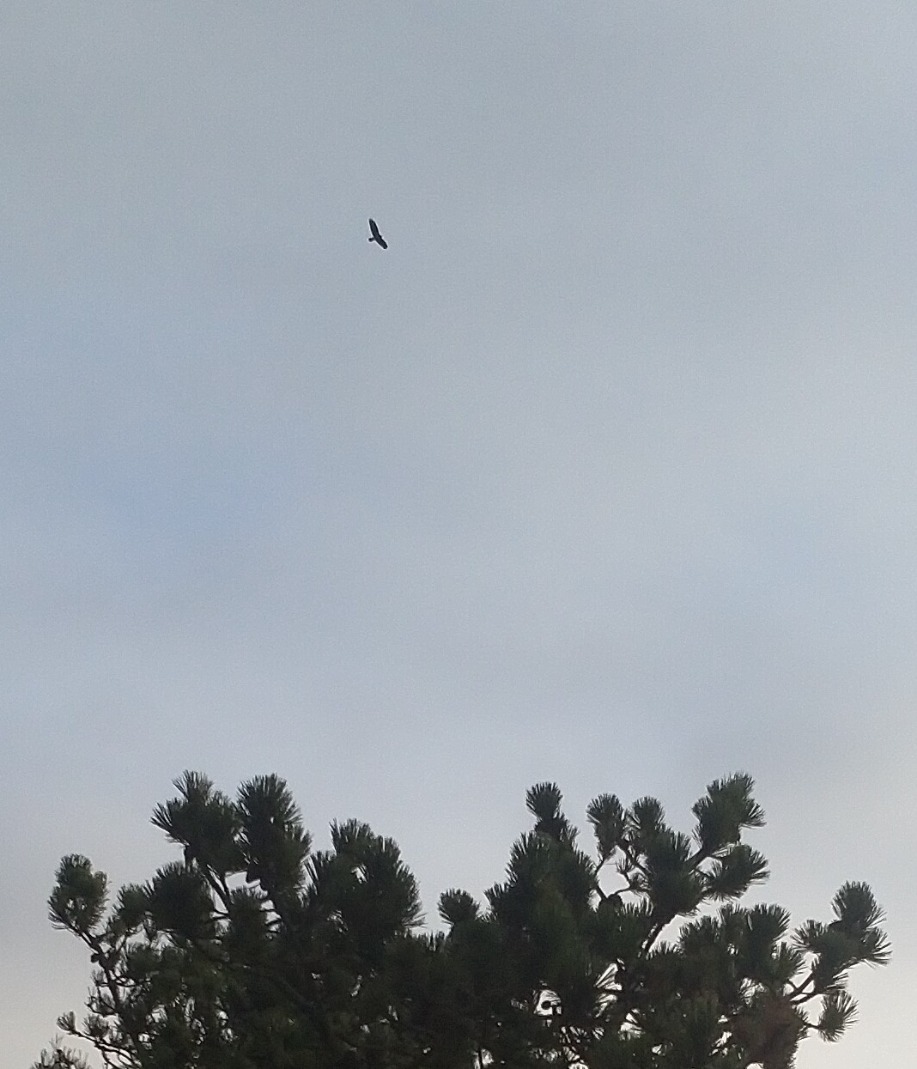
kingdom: Animalia
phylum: Chordata
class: Aves
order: Accipitriformes
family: Accipitridae
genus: Buteo
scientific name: Buteo buteo
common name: Musvåge
